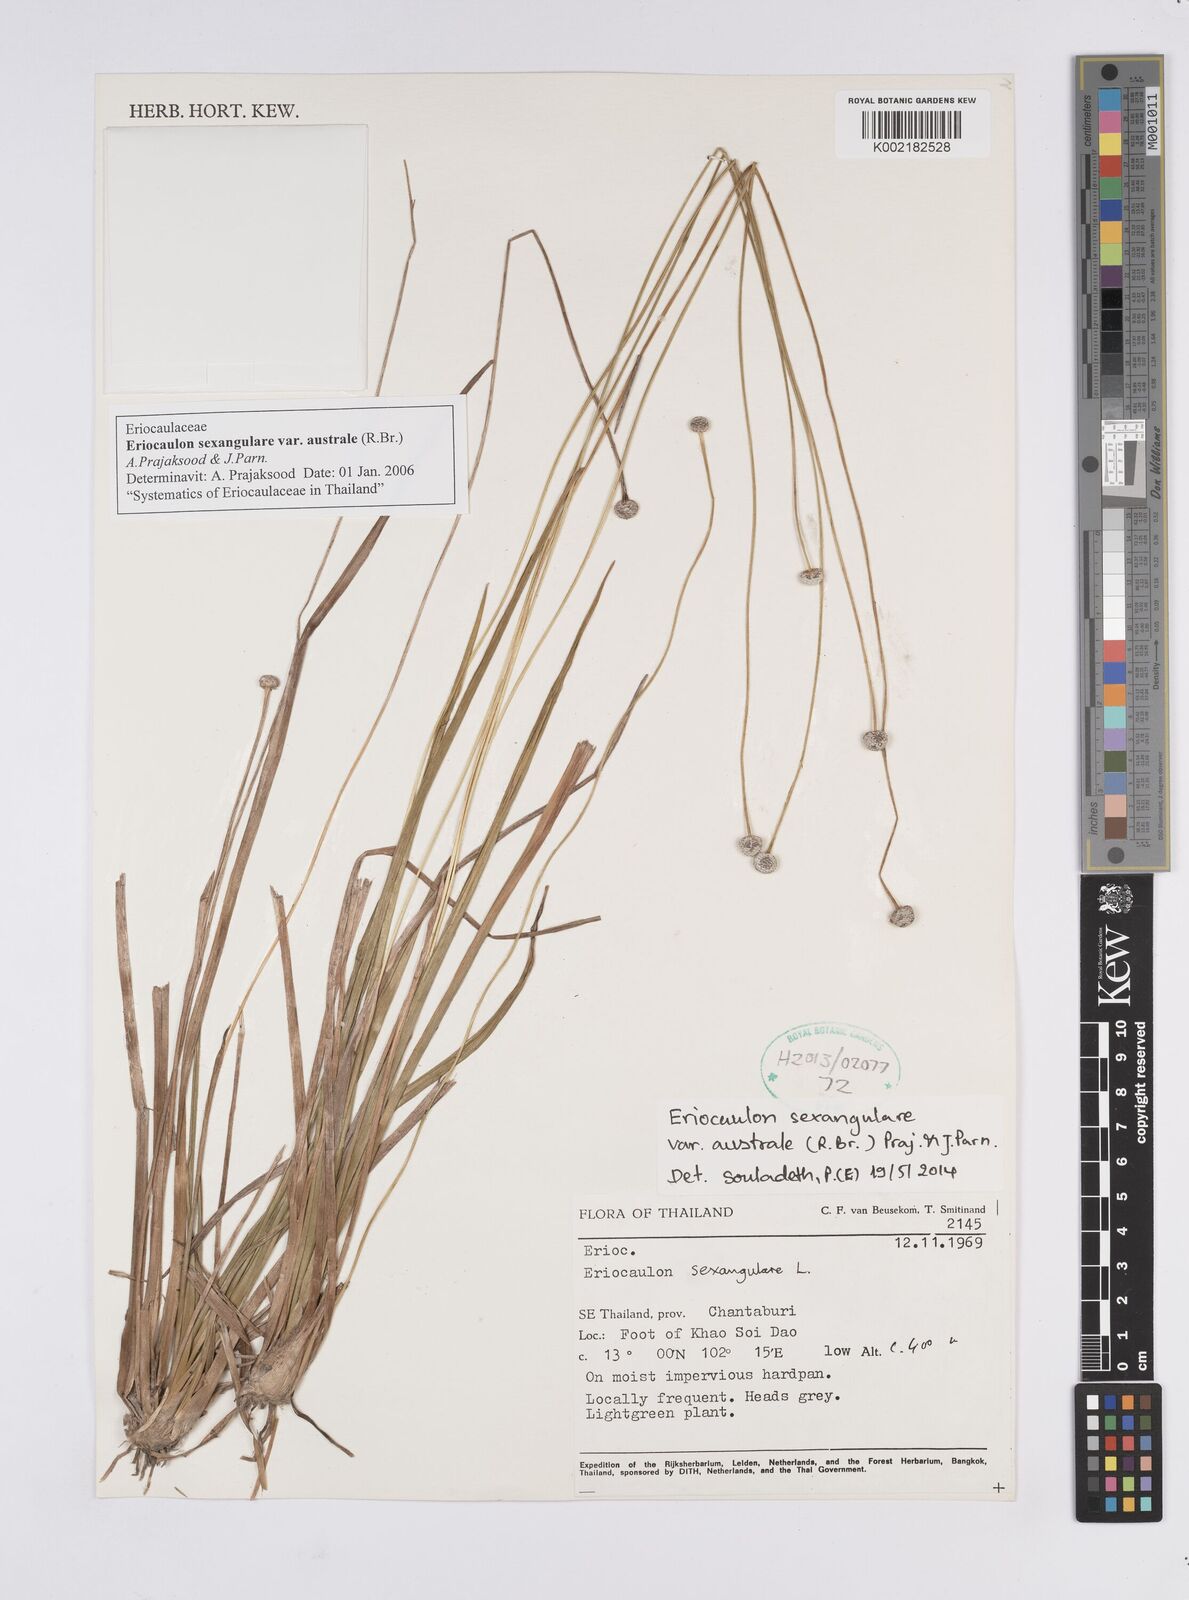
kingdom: Plantae
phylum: Tracheophyta
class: Liliopsida
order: Poales
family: Eriocaulaceae
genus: Eriocaulon
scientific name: Eriocaulon australe
